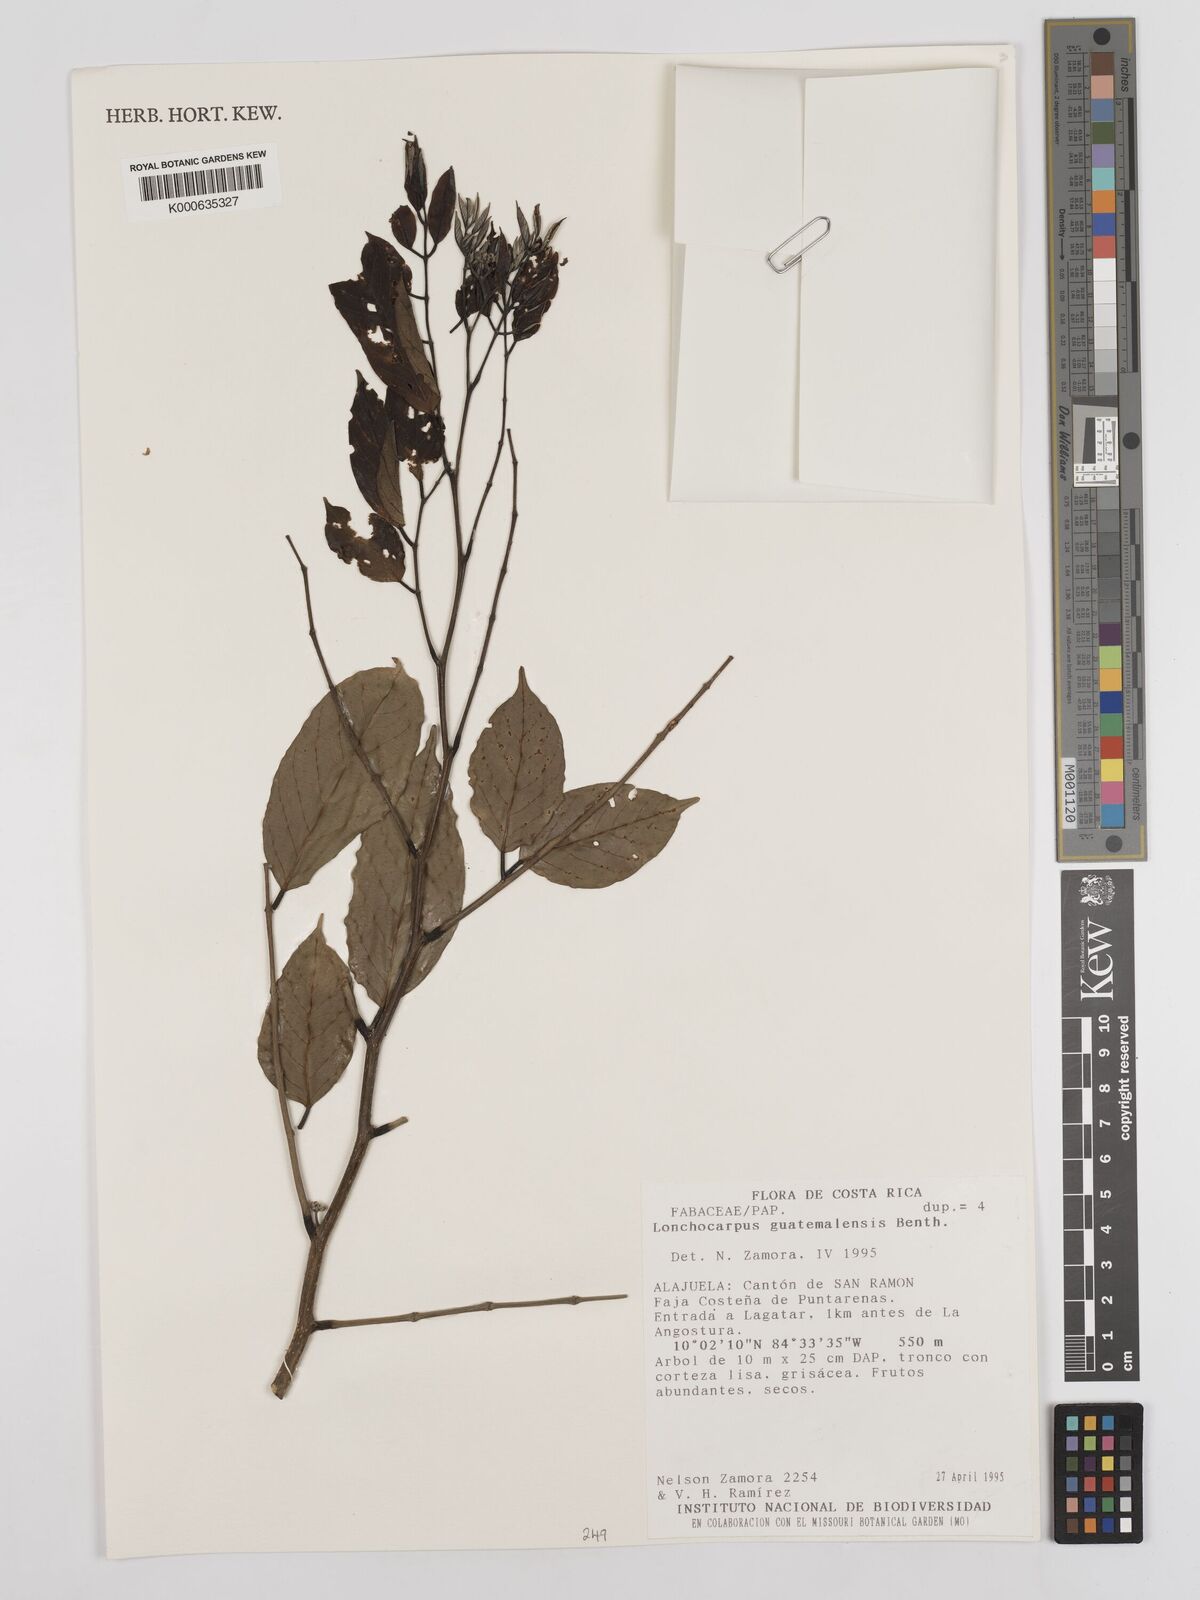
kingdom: Plantae
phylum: Tracheophyta
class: Magnoliopsida
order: Fabales
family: Fabaceae
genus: Lonchocarpus
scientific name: Lonchocarpus guatemalensis
